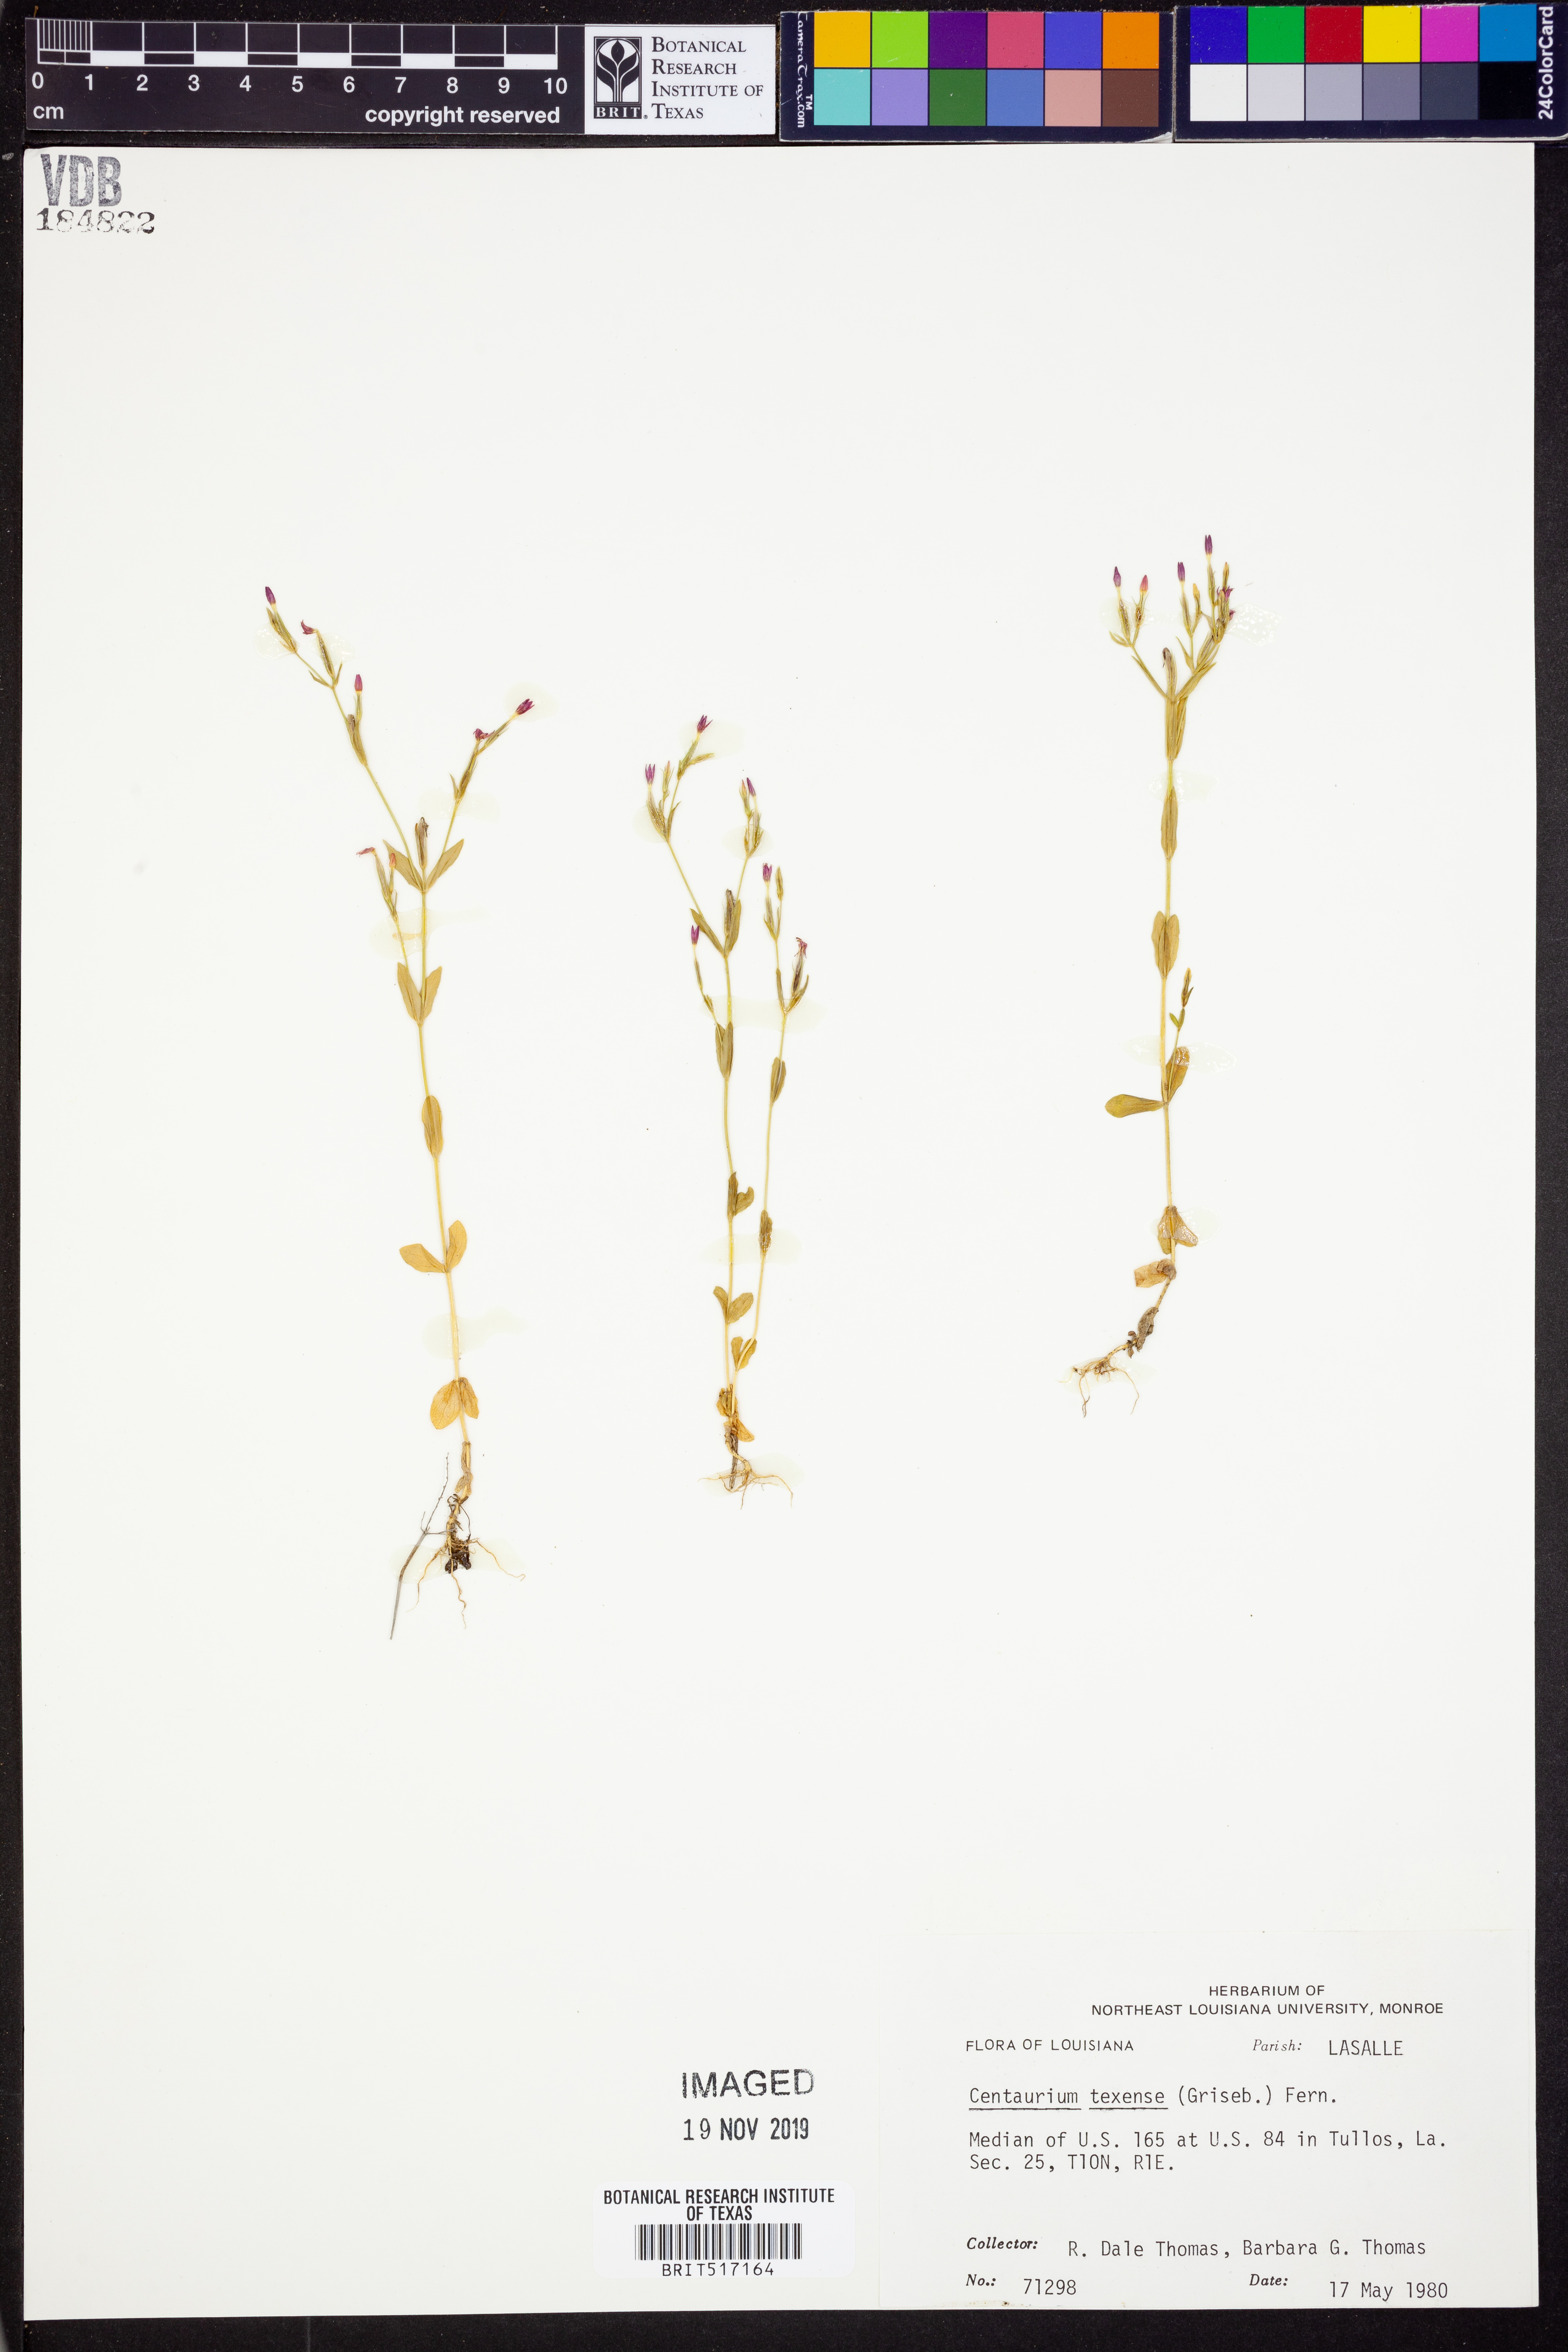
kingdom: Plantae
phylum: Tracheophyta
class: Magnoliopsida
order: Gentianales
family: Gentianaceae
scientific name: Gentianaceae
